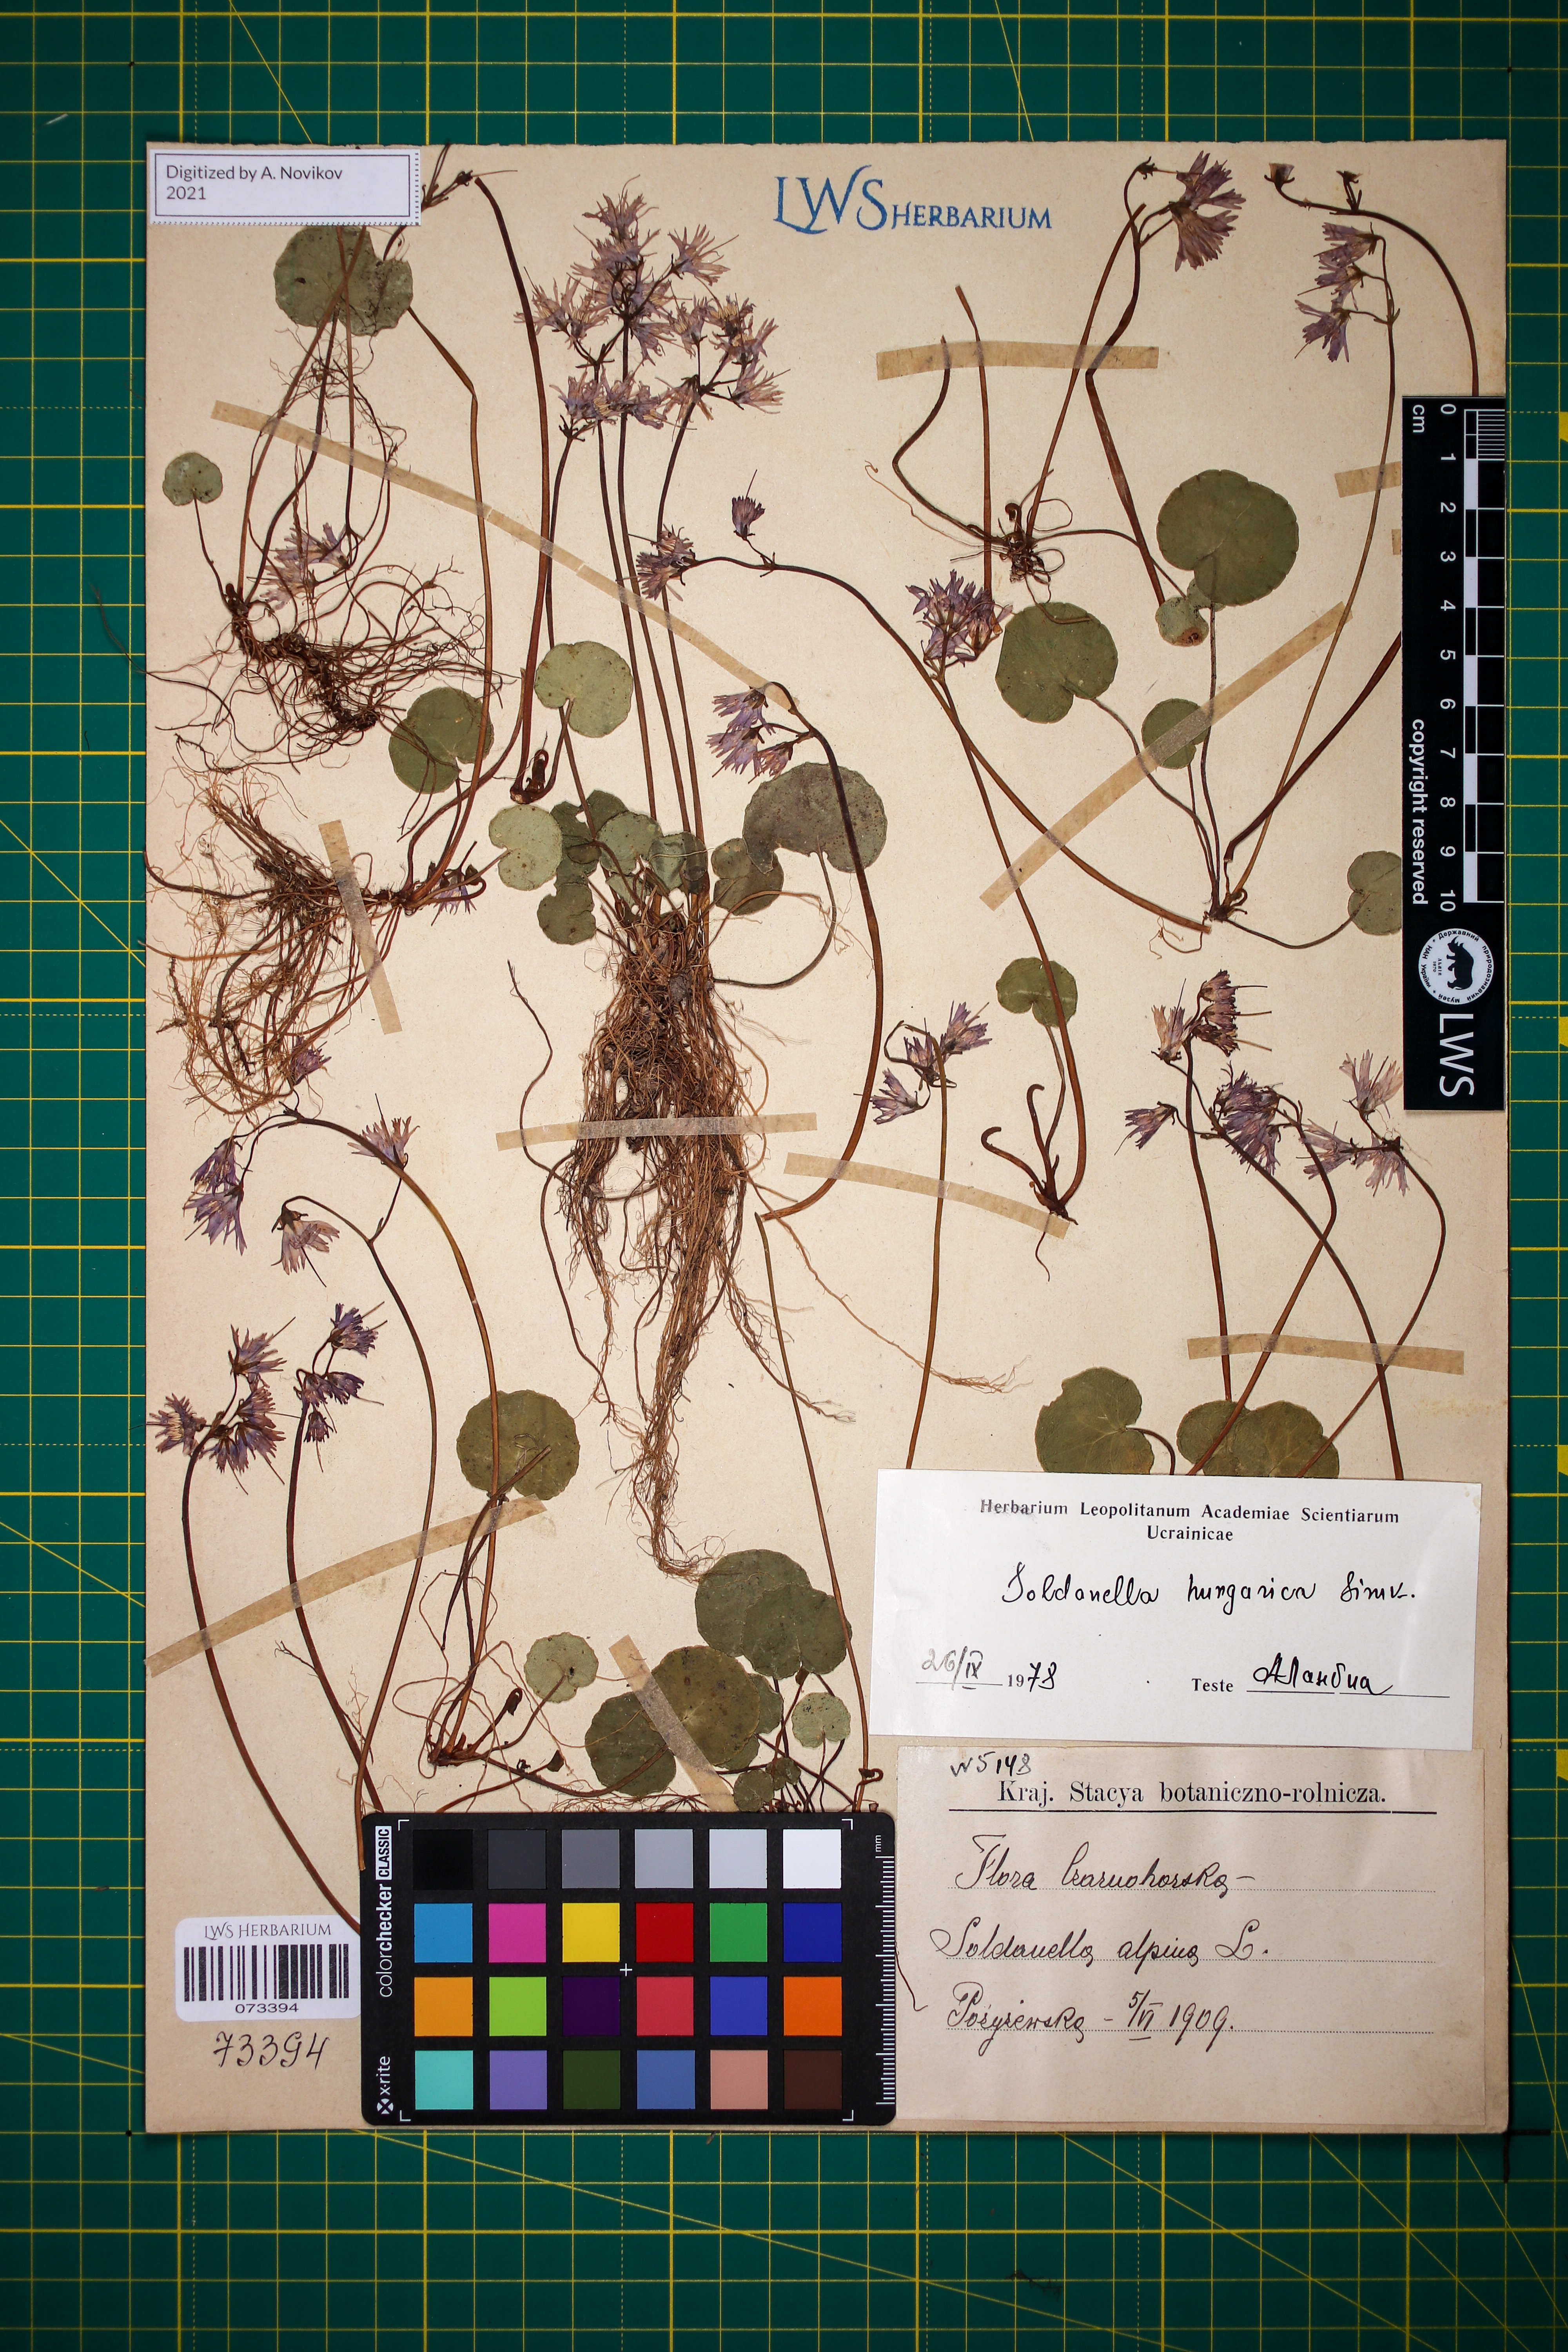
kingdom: Plantae
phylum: Tracheophyta
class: Magnoliopsida
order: Ericales
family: Primulaceae
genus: Soldanella
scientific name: Soldanella hungarica
